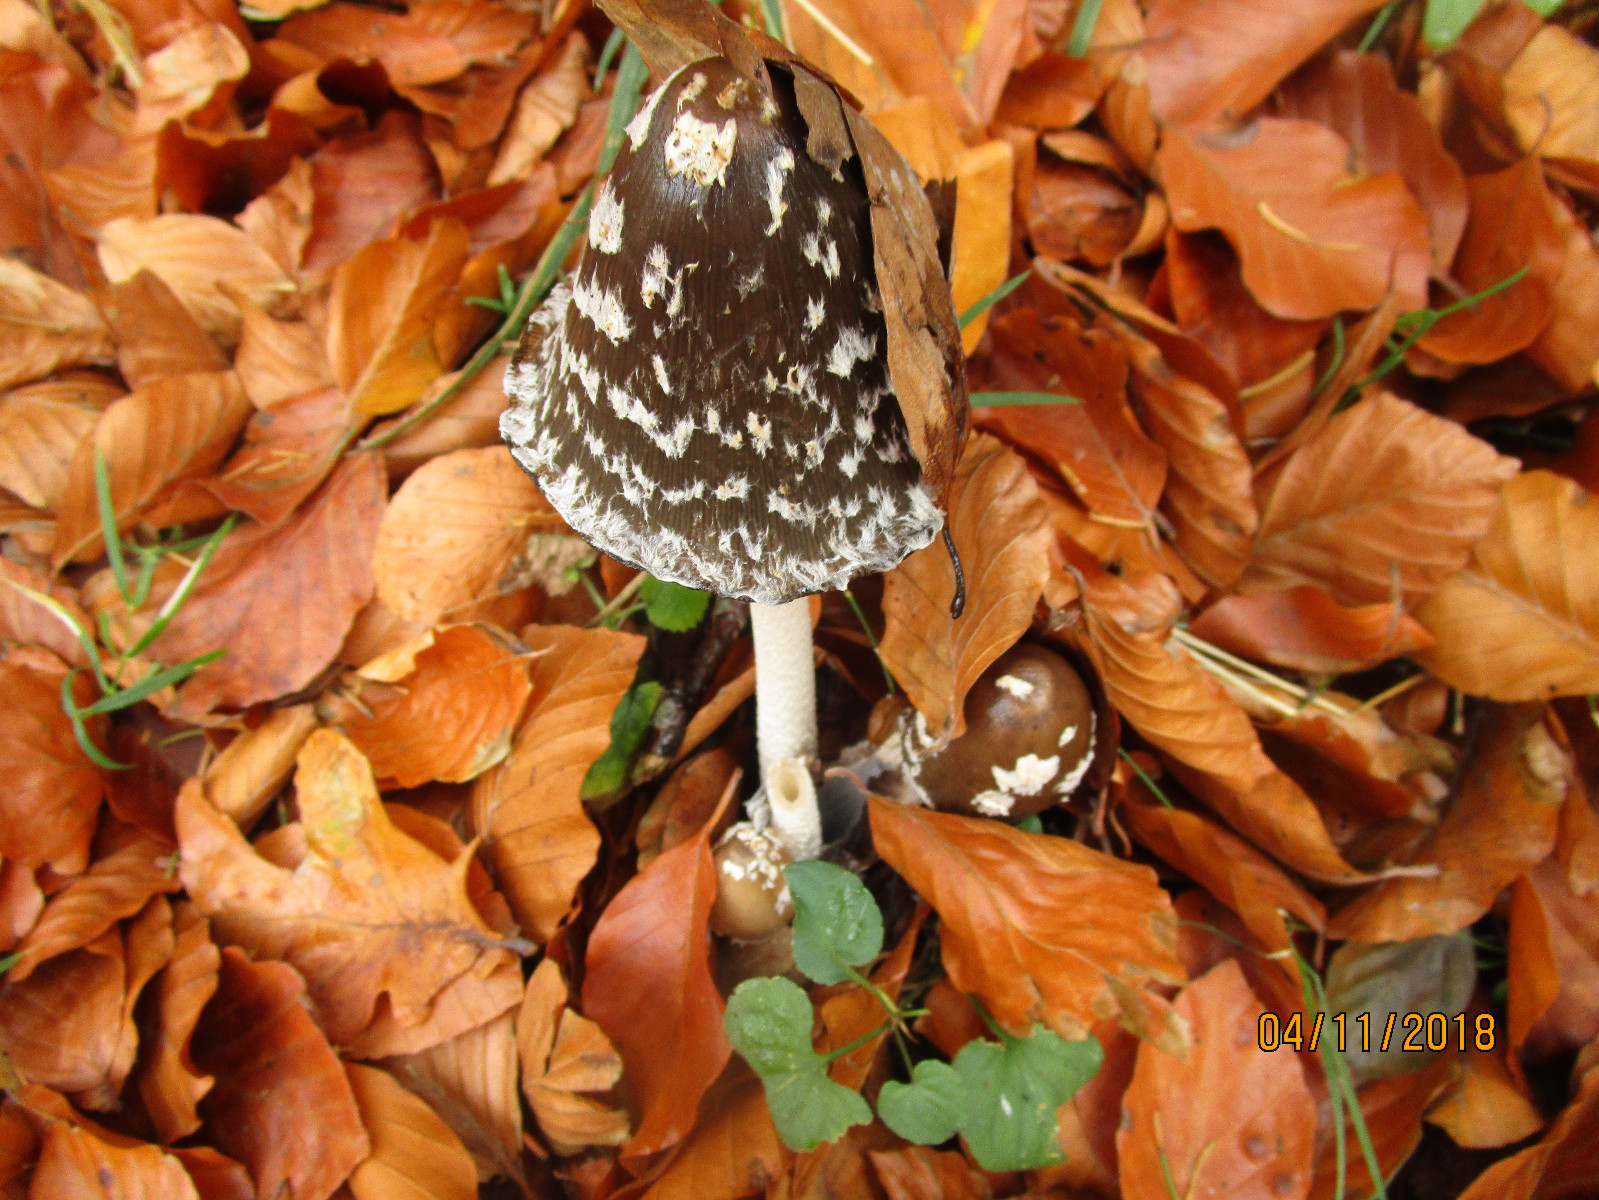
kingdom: Fungi
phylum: Basidiomycota
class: Agaricomycetes
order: Agaricales
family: Psathyrellaceae
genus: Coprinopsis
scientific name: Coprinopsis picacea
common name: skade-blækhat
